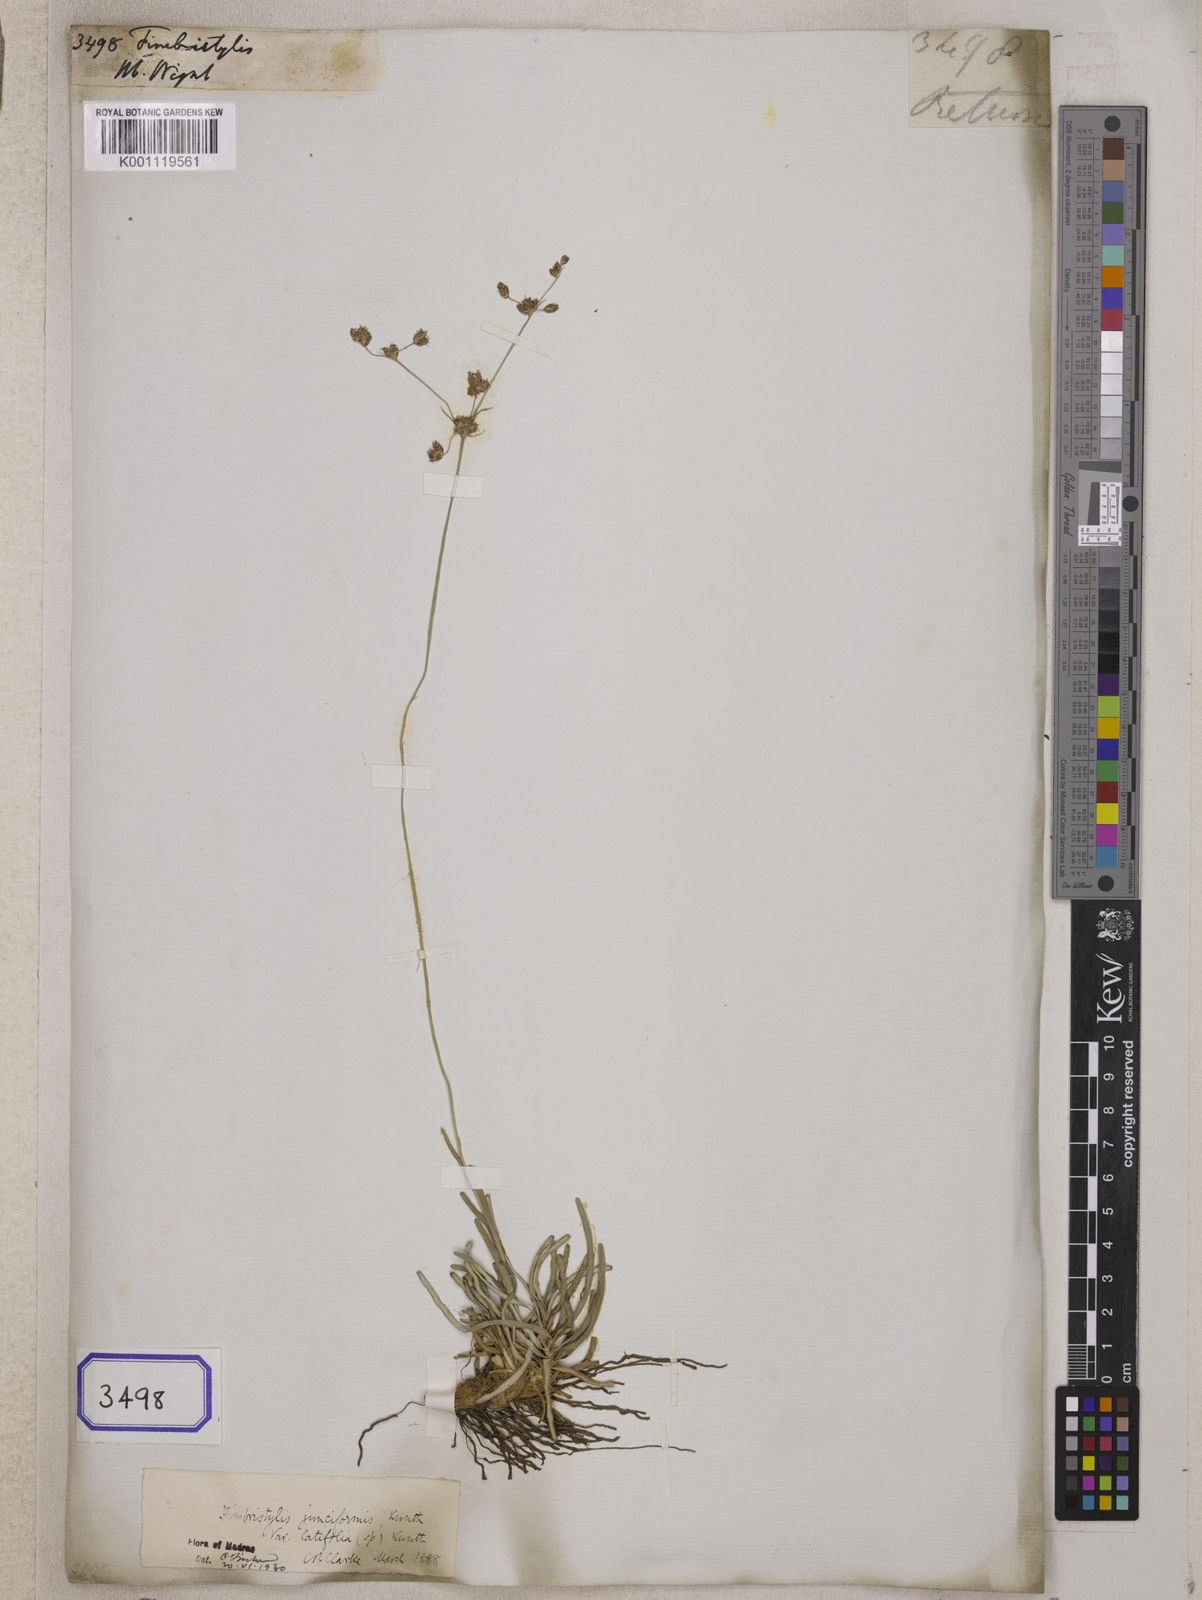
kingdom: Plantae
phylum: Tracheophyta
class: Liliopsida
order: Poales
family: Cyperaceae
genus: Fimbristylis
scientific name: Fimbristylis
